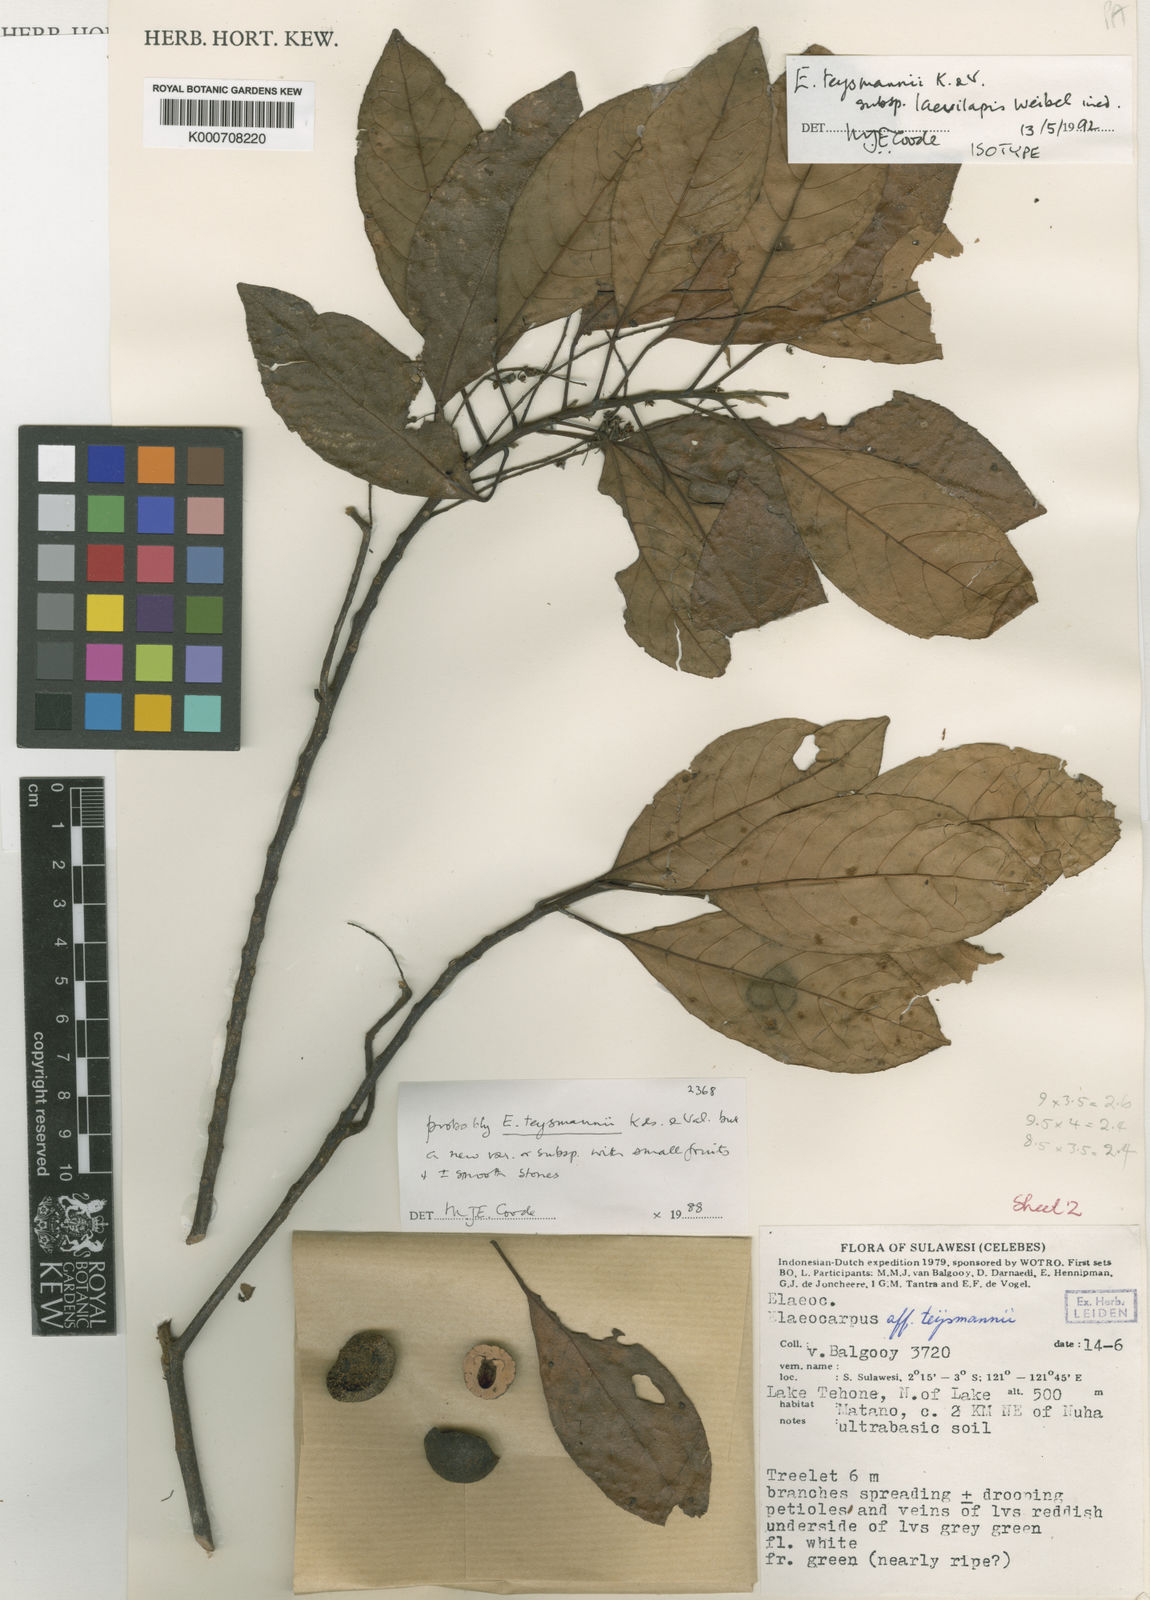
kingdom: Plantae
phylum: Tracheophyta
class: Magnoliopsida
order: Oxalidales
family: Elaeocarpaceae
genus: Elaeocarpus
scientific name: Elaeocarpus teysmannii
